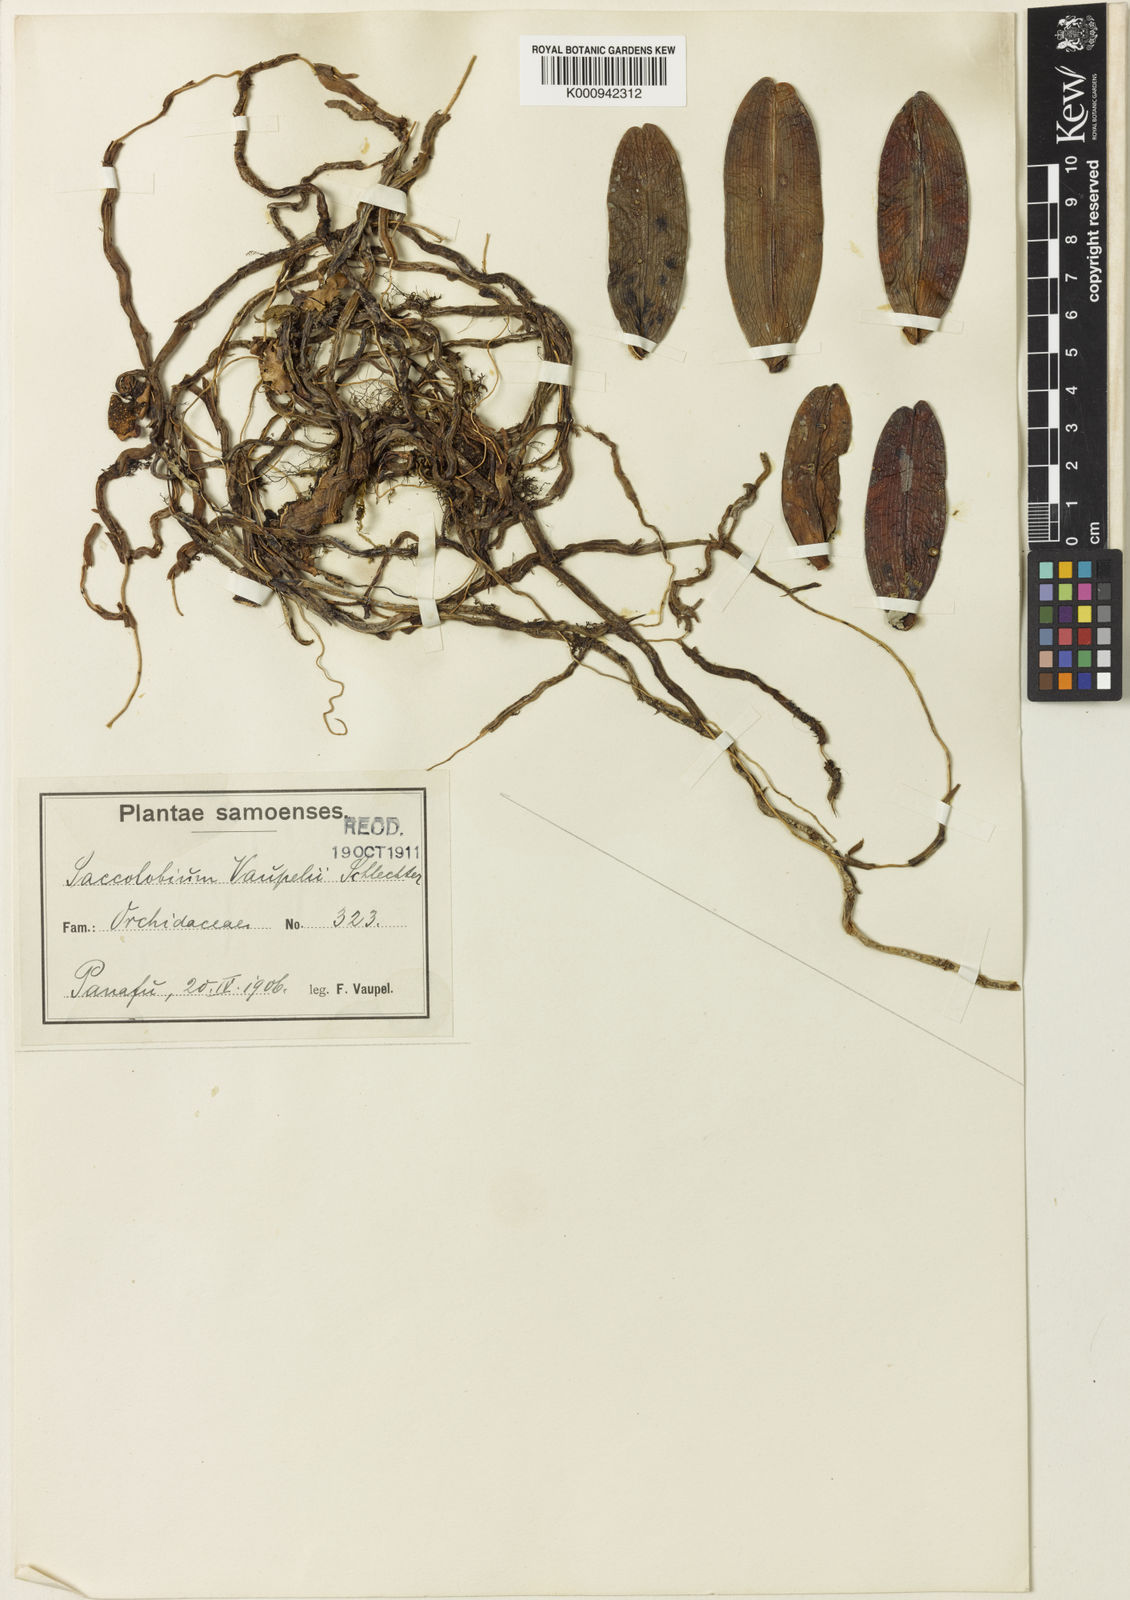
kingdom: Plantae
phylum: Tracheophyta
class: Liliopsida
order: Asparagales
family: Orchidaceae
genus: Robiquetia
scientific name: Robiquetia vaupelii
